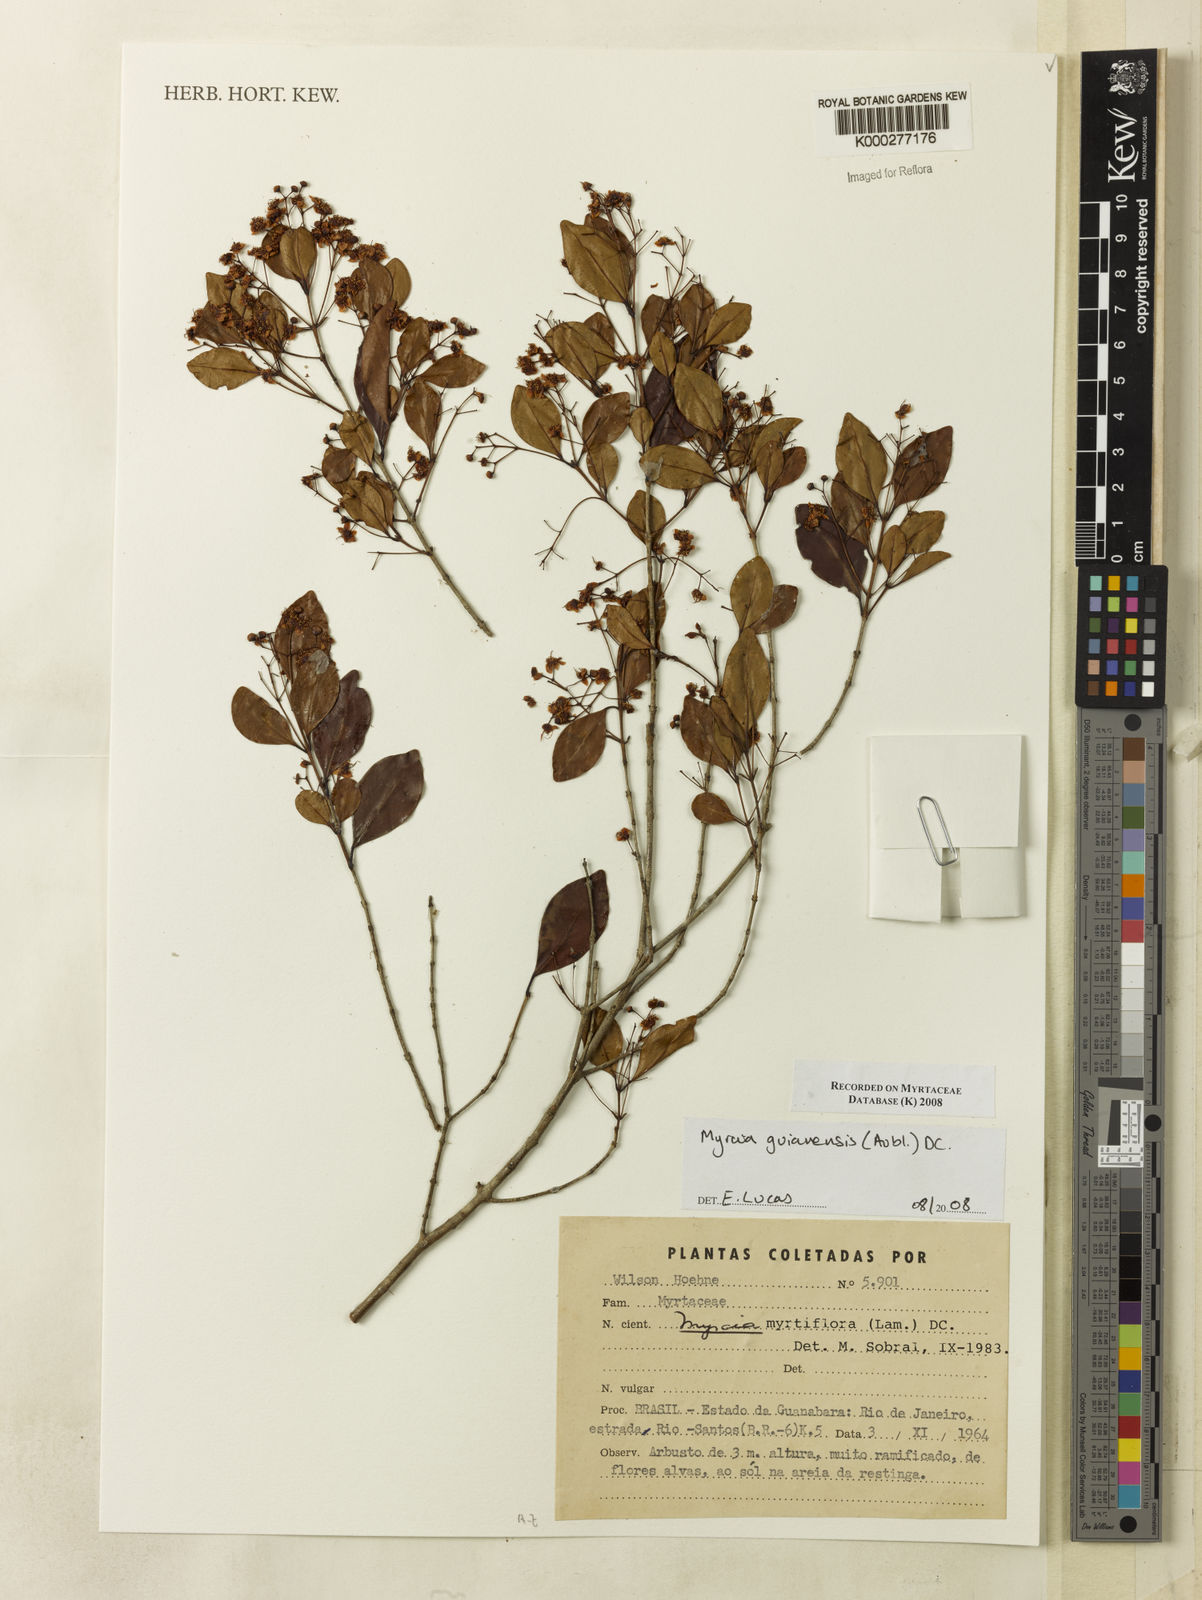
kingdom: Plantae
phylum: Tracheophyta
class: Magnoliopsida
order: Myrtales
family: Myrtaceae
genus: Myrcia
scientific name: Myrcia guianensis
